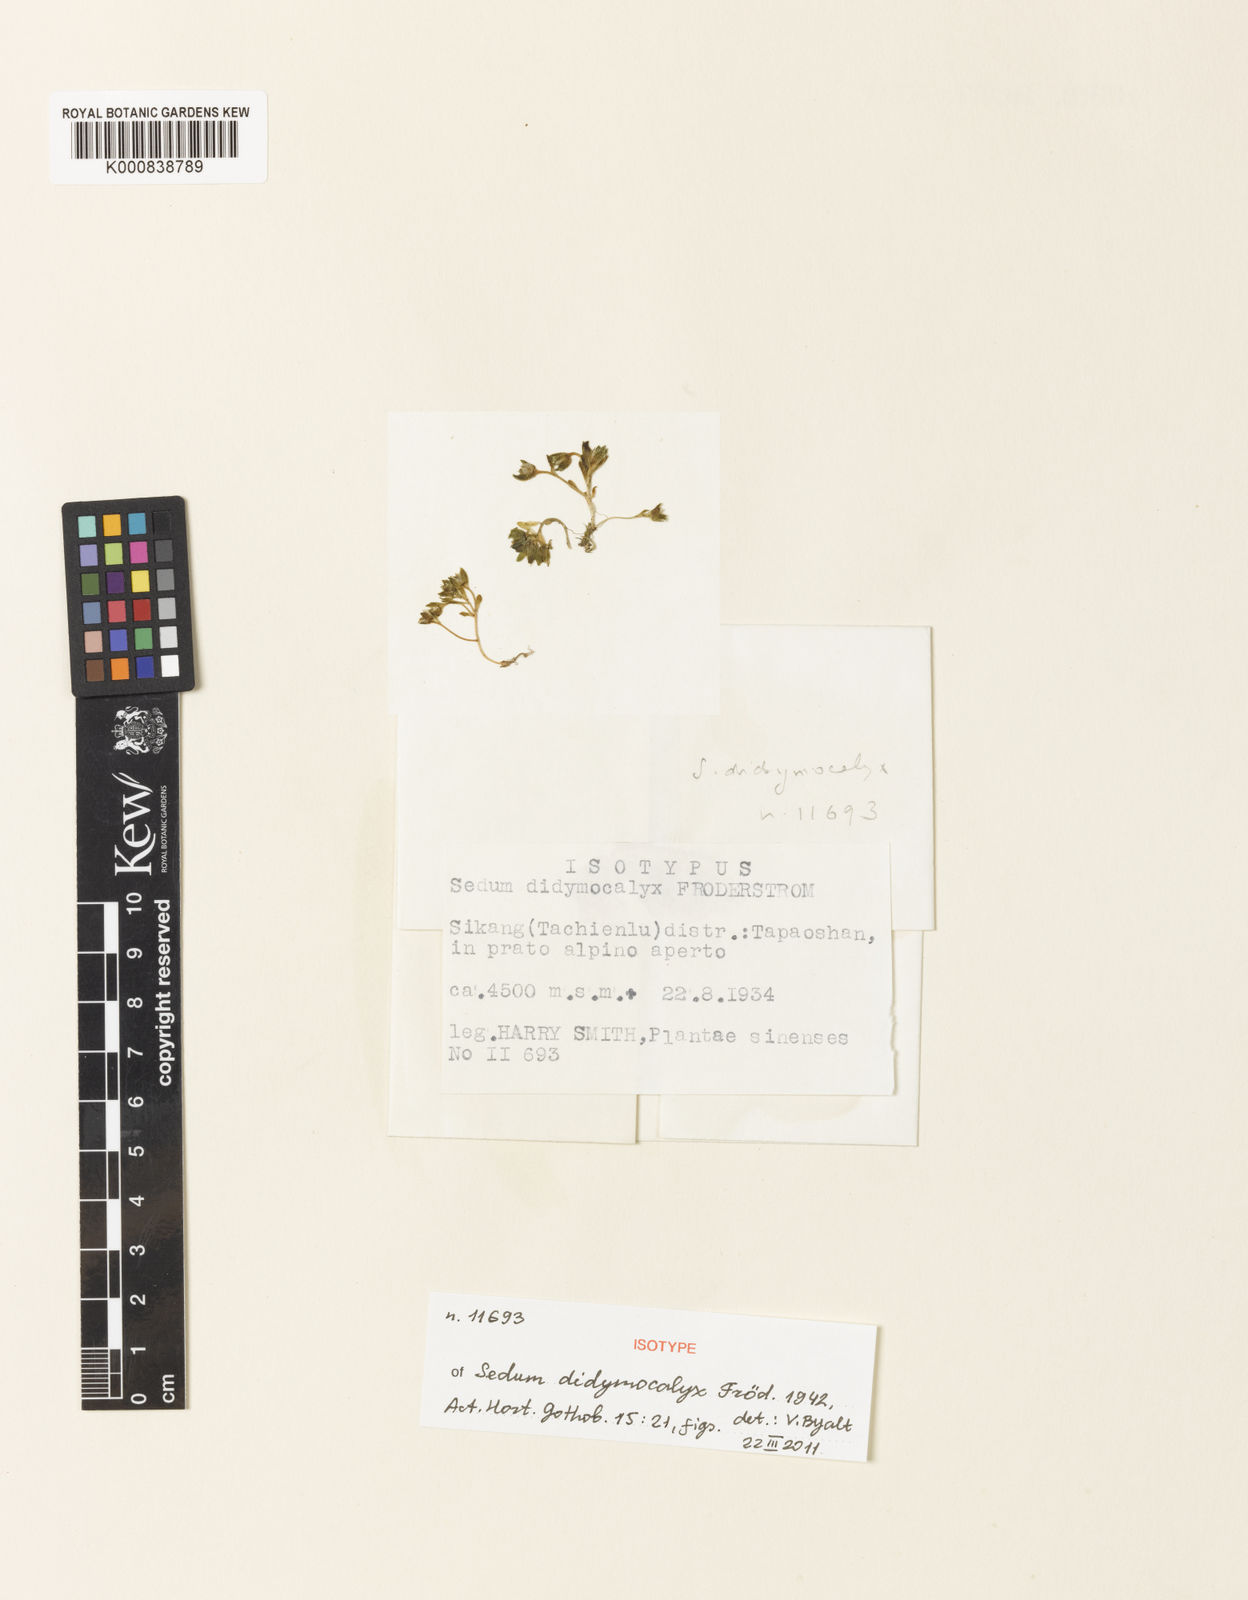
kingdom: Plantae
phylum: Tracheophyta
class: Magnoliopsida
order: Saxifragales
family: Crassulaceae
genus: Sedum
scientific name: Sedum
